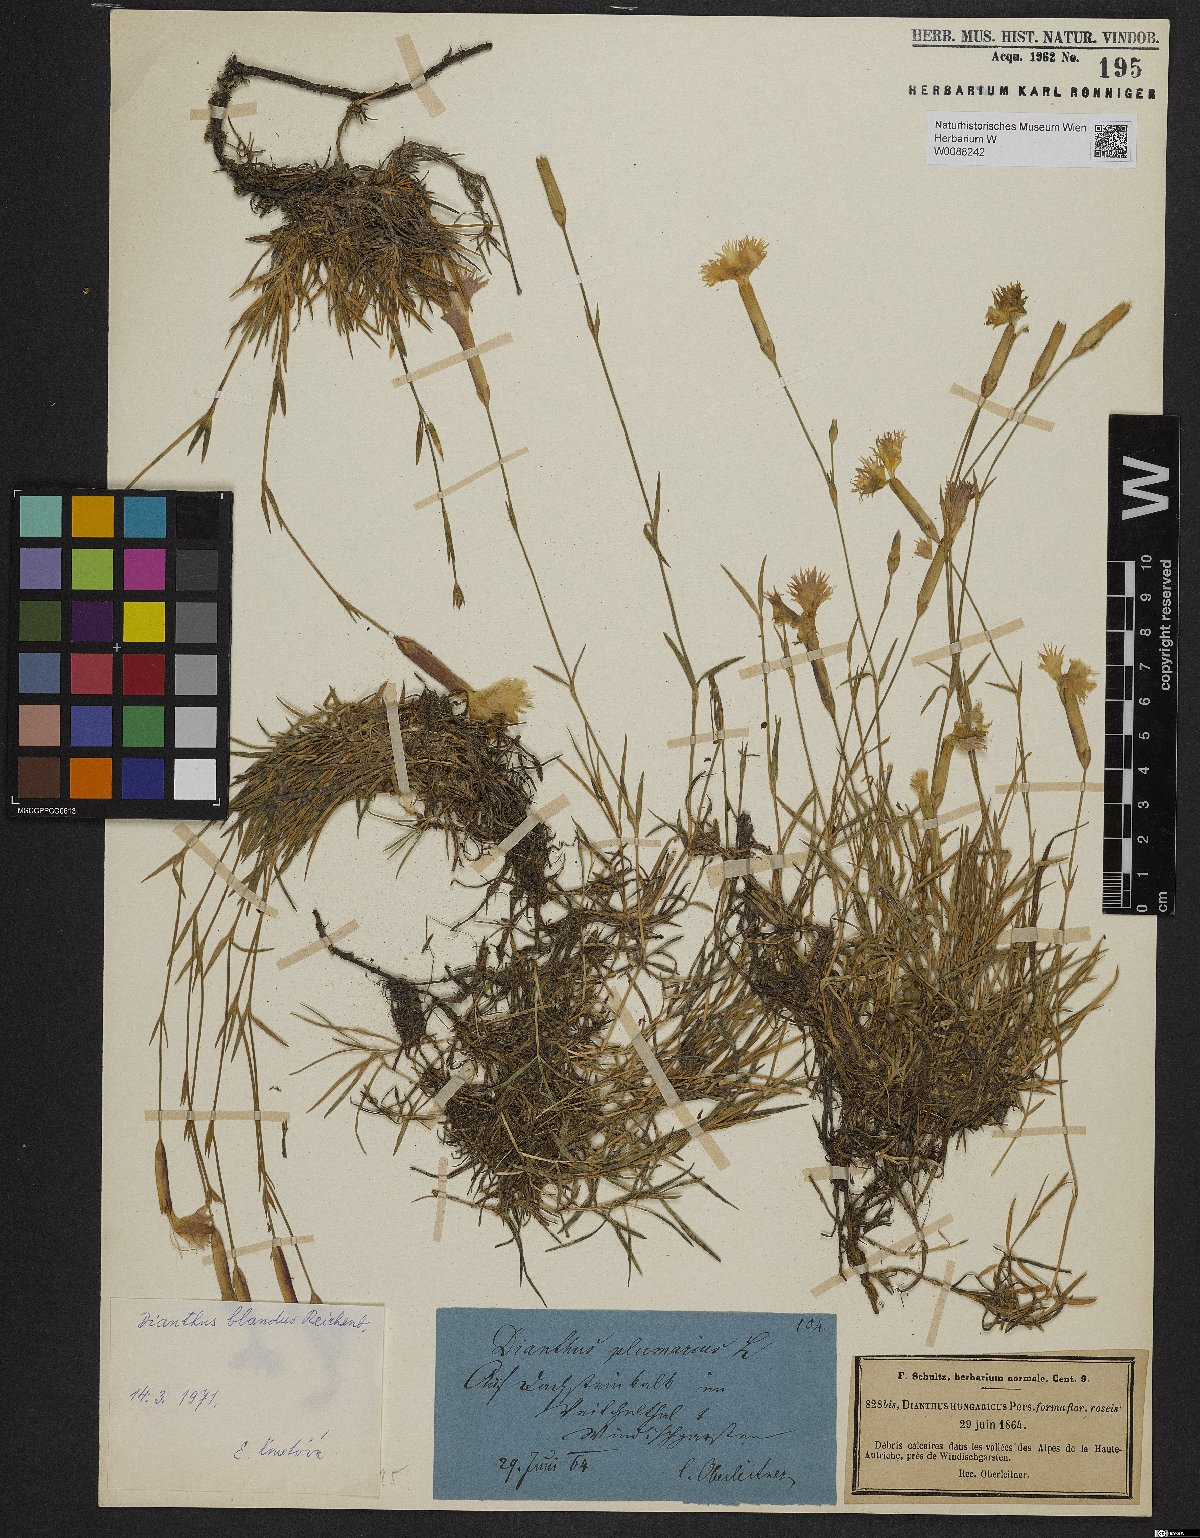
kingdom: Plantae
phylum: Tracheophyta
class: Magnoliopsida
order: Caryophyllales
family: Caryophyllaceae
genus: Dianthus
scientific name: Dianthus plumarius
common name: Pink
